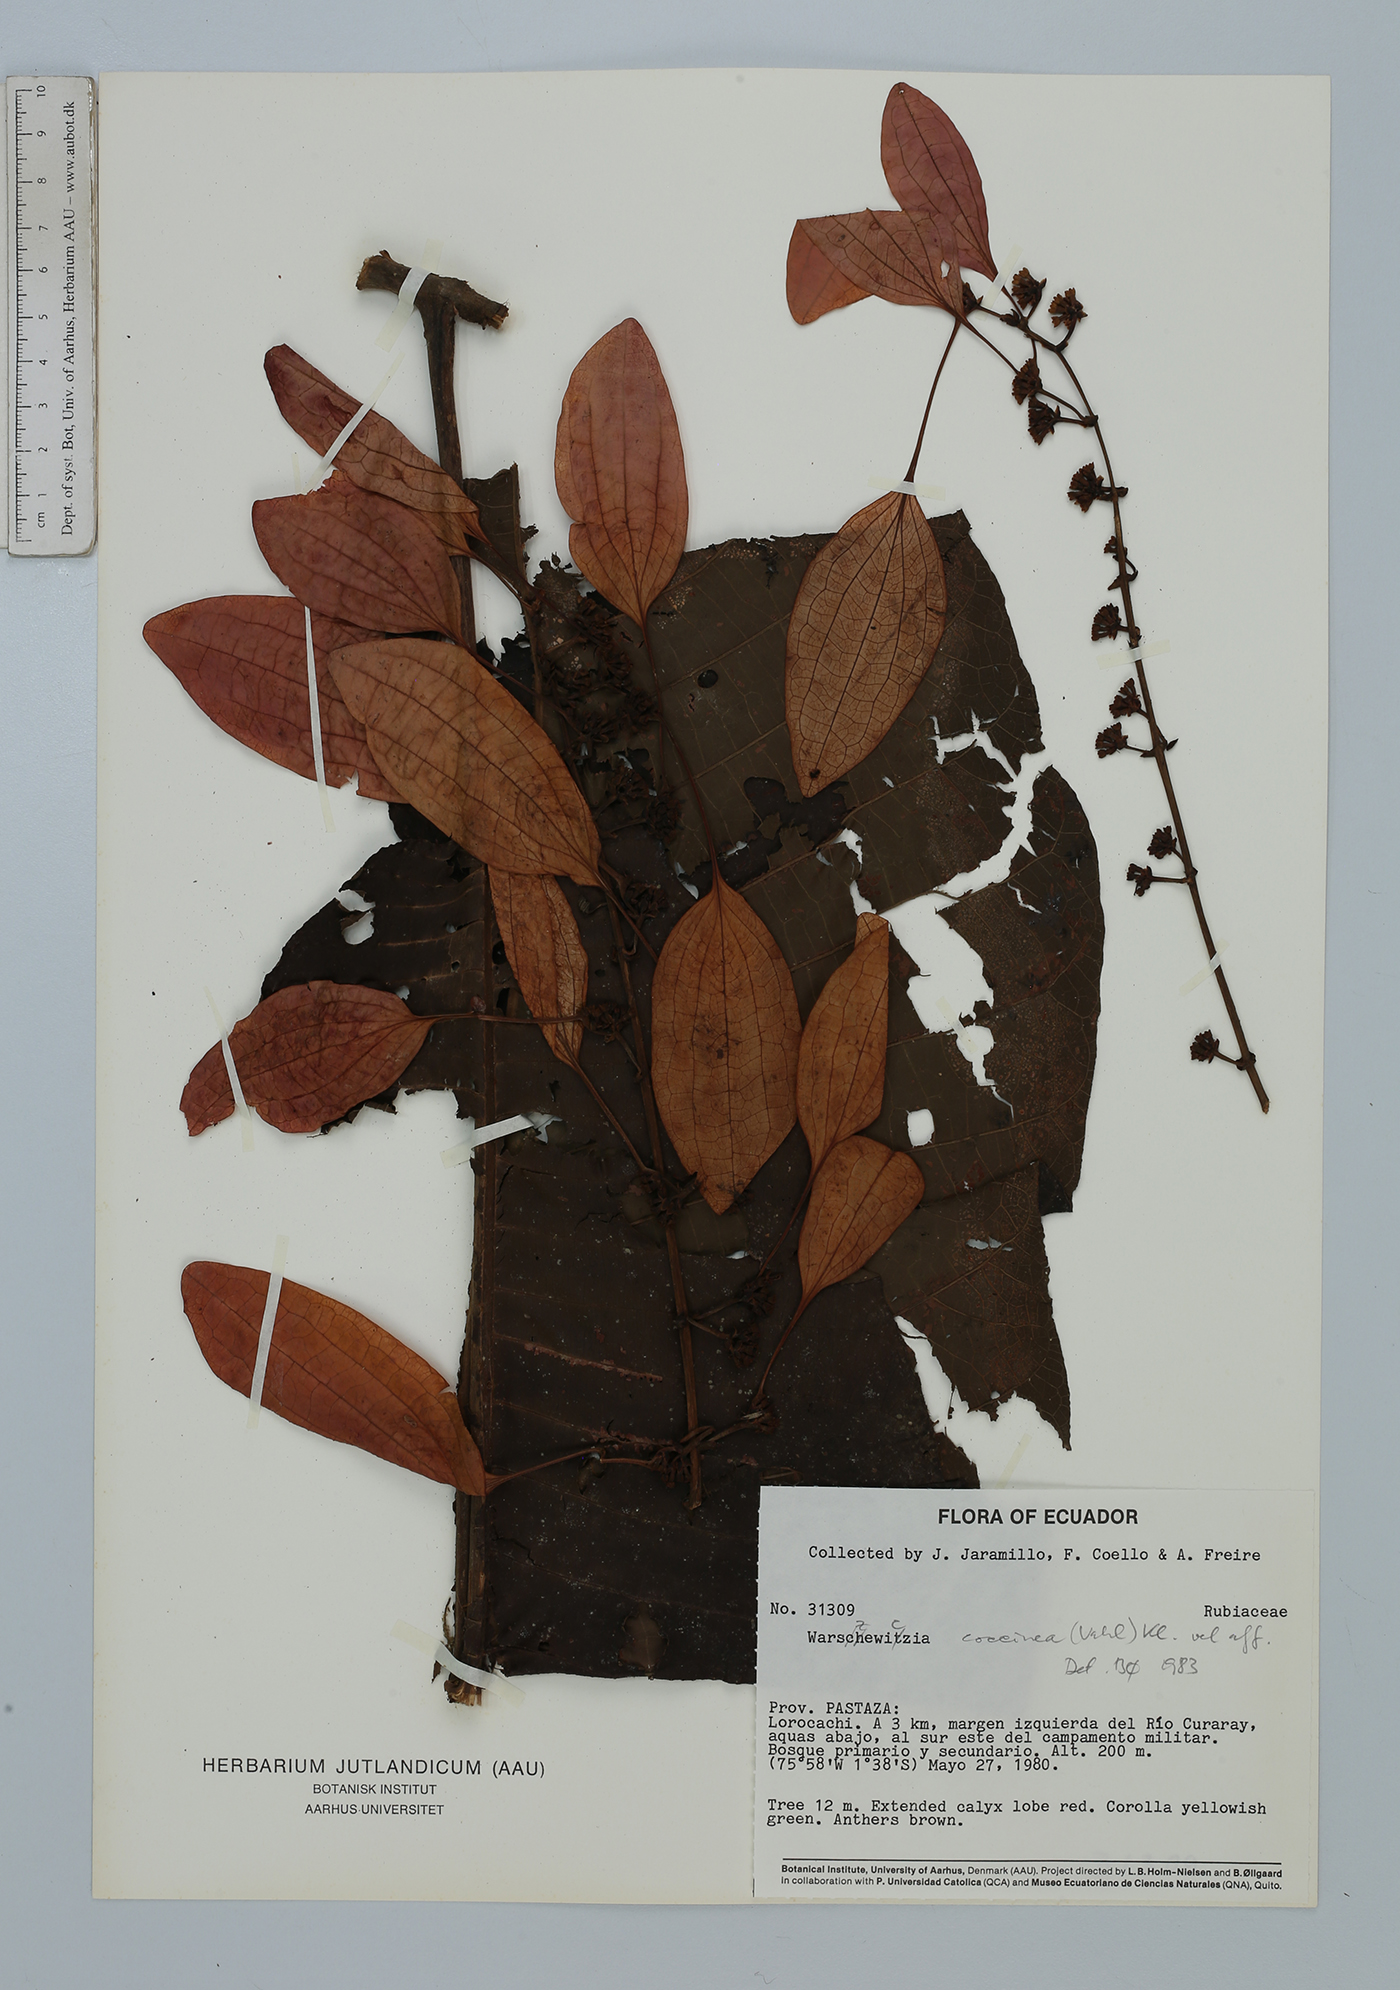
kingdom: Plantae
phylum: Tracheophyta
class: Magnoliopsida
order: Gentianales
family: Rubiaceae
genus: Warszewiczia
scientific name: Warszewiczia coccinea
